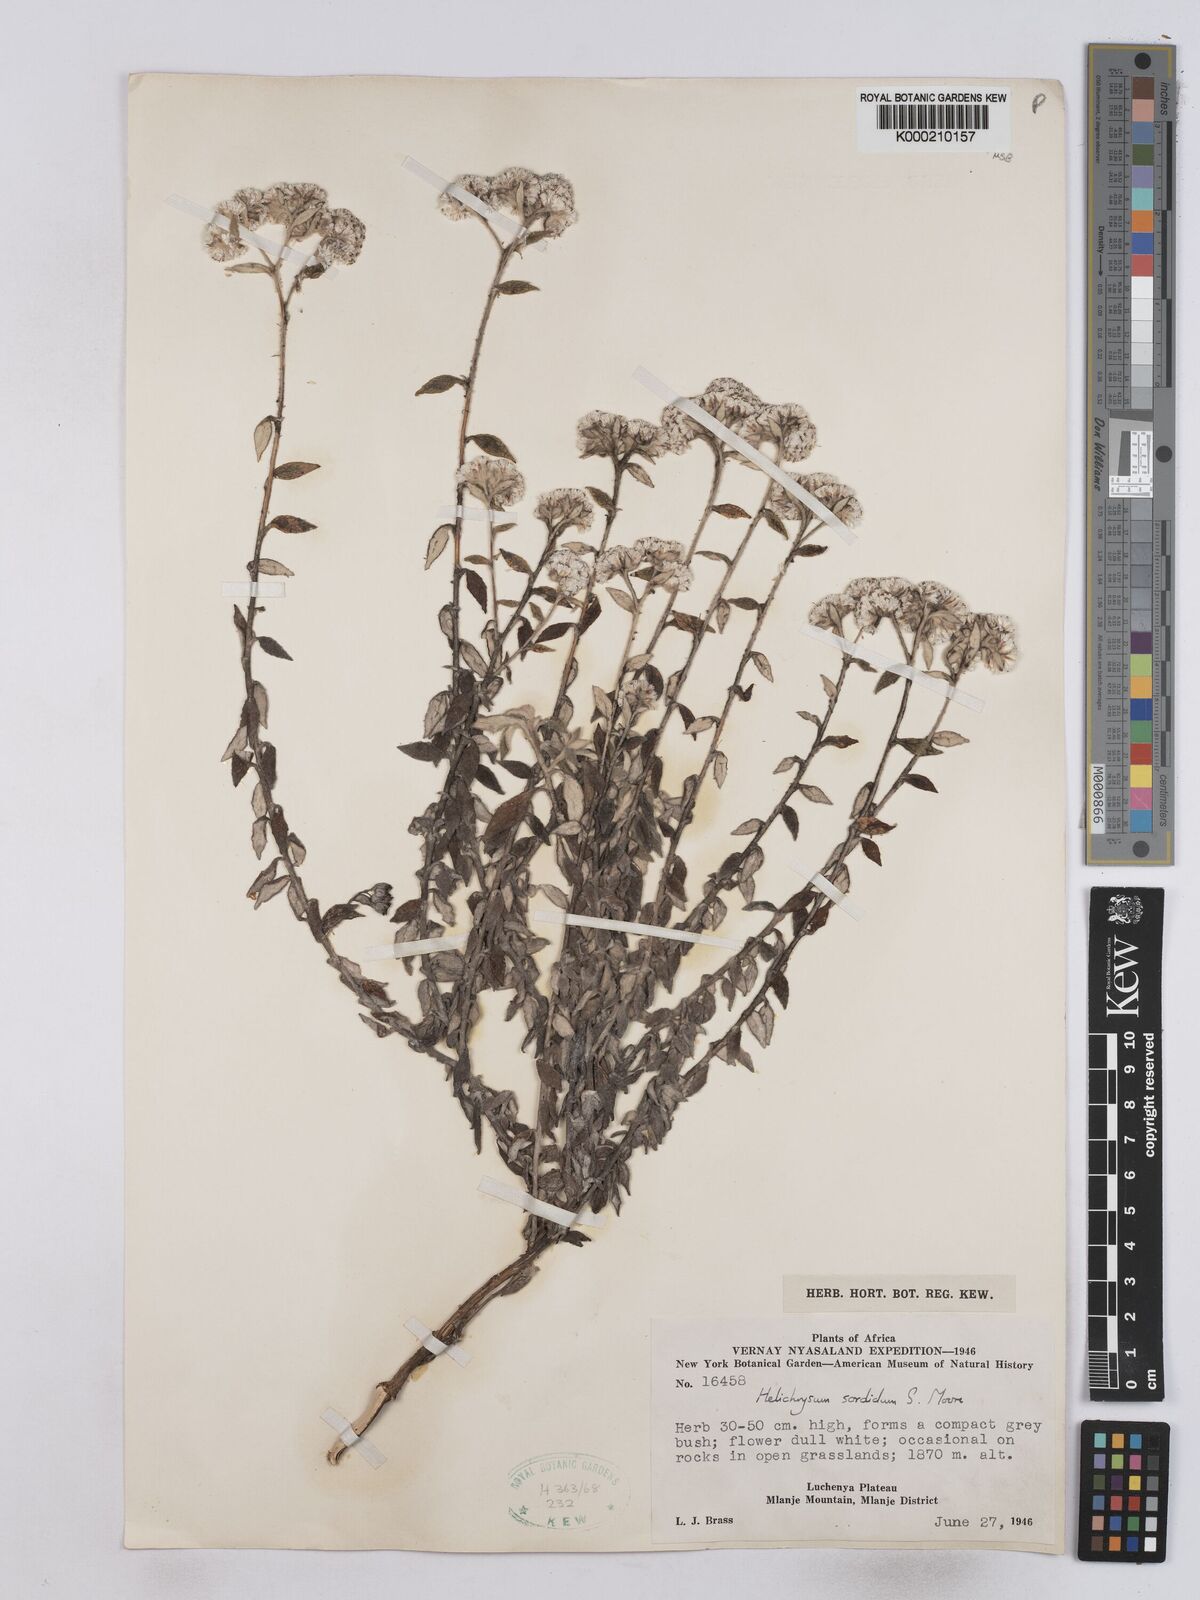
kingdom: Plantae
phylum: Tracheophyta
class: Magnoliopsida
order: Asterales
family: Asteraceae
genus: Helichrysum
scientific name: Helichrysum
